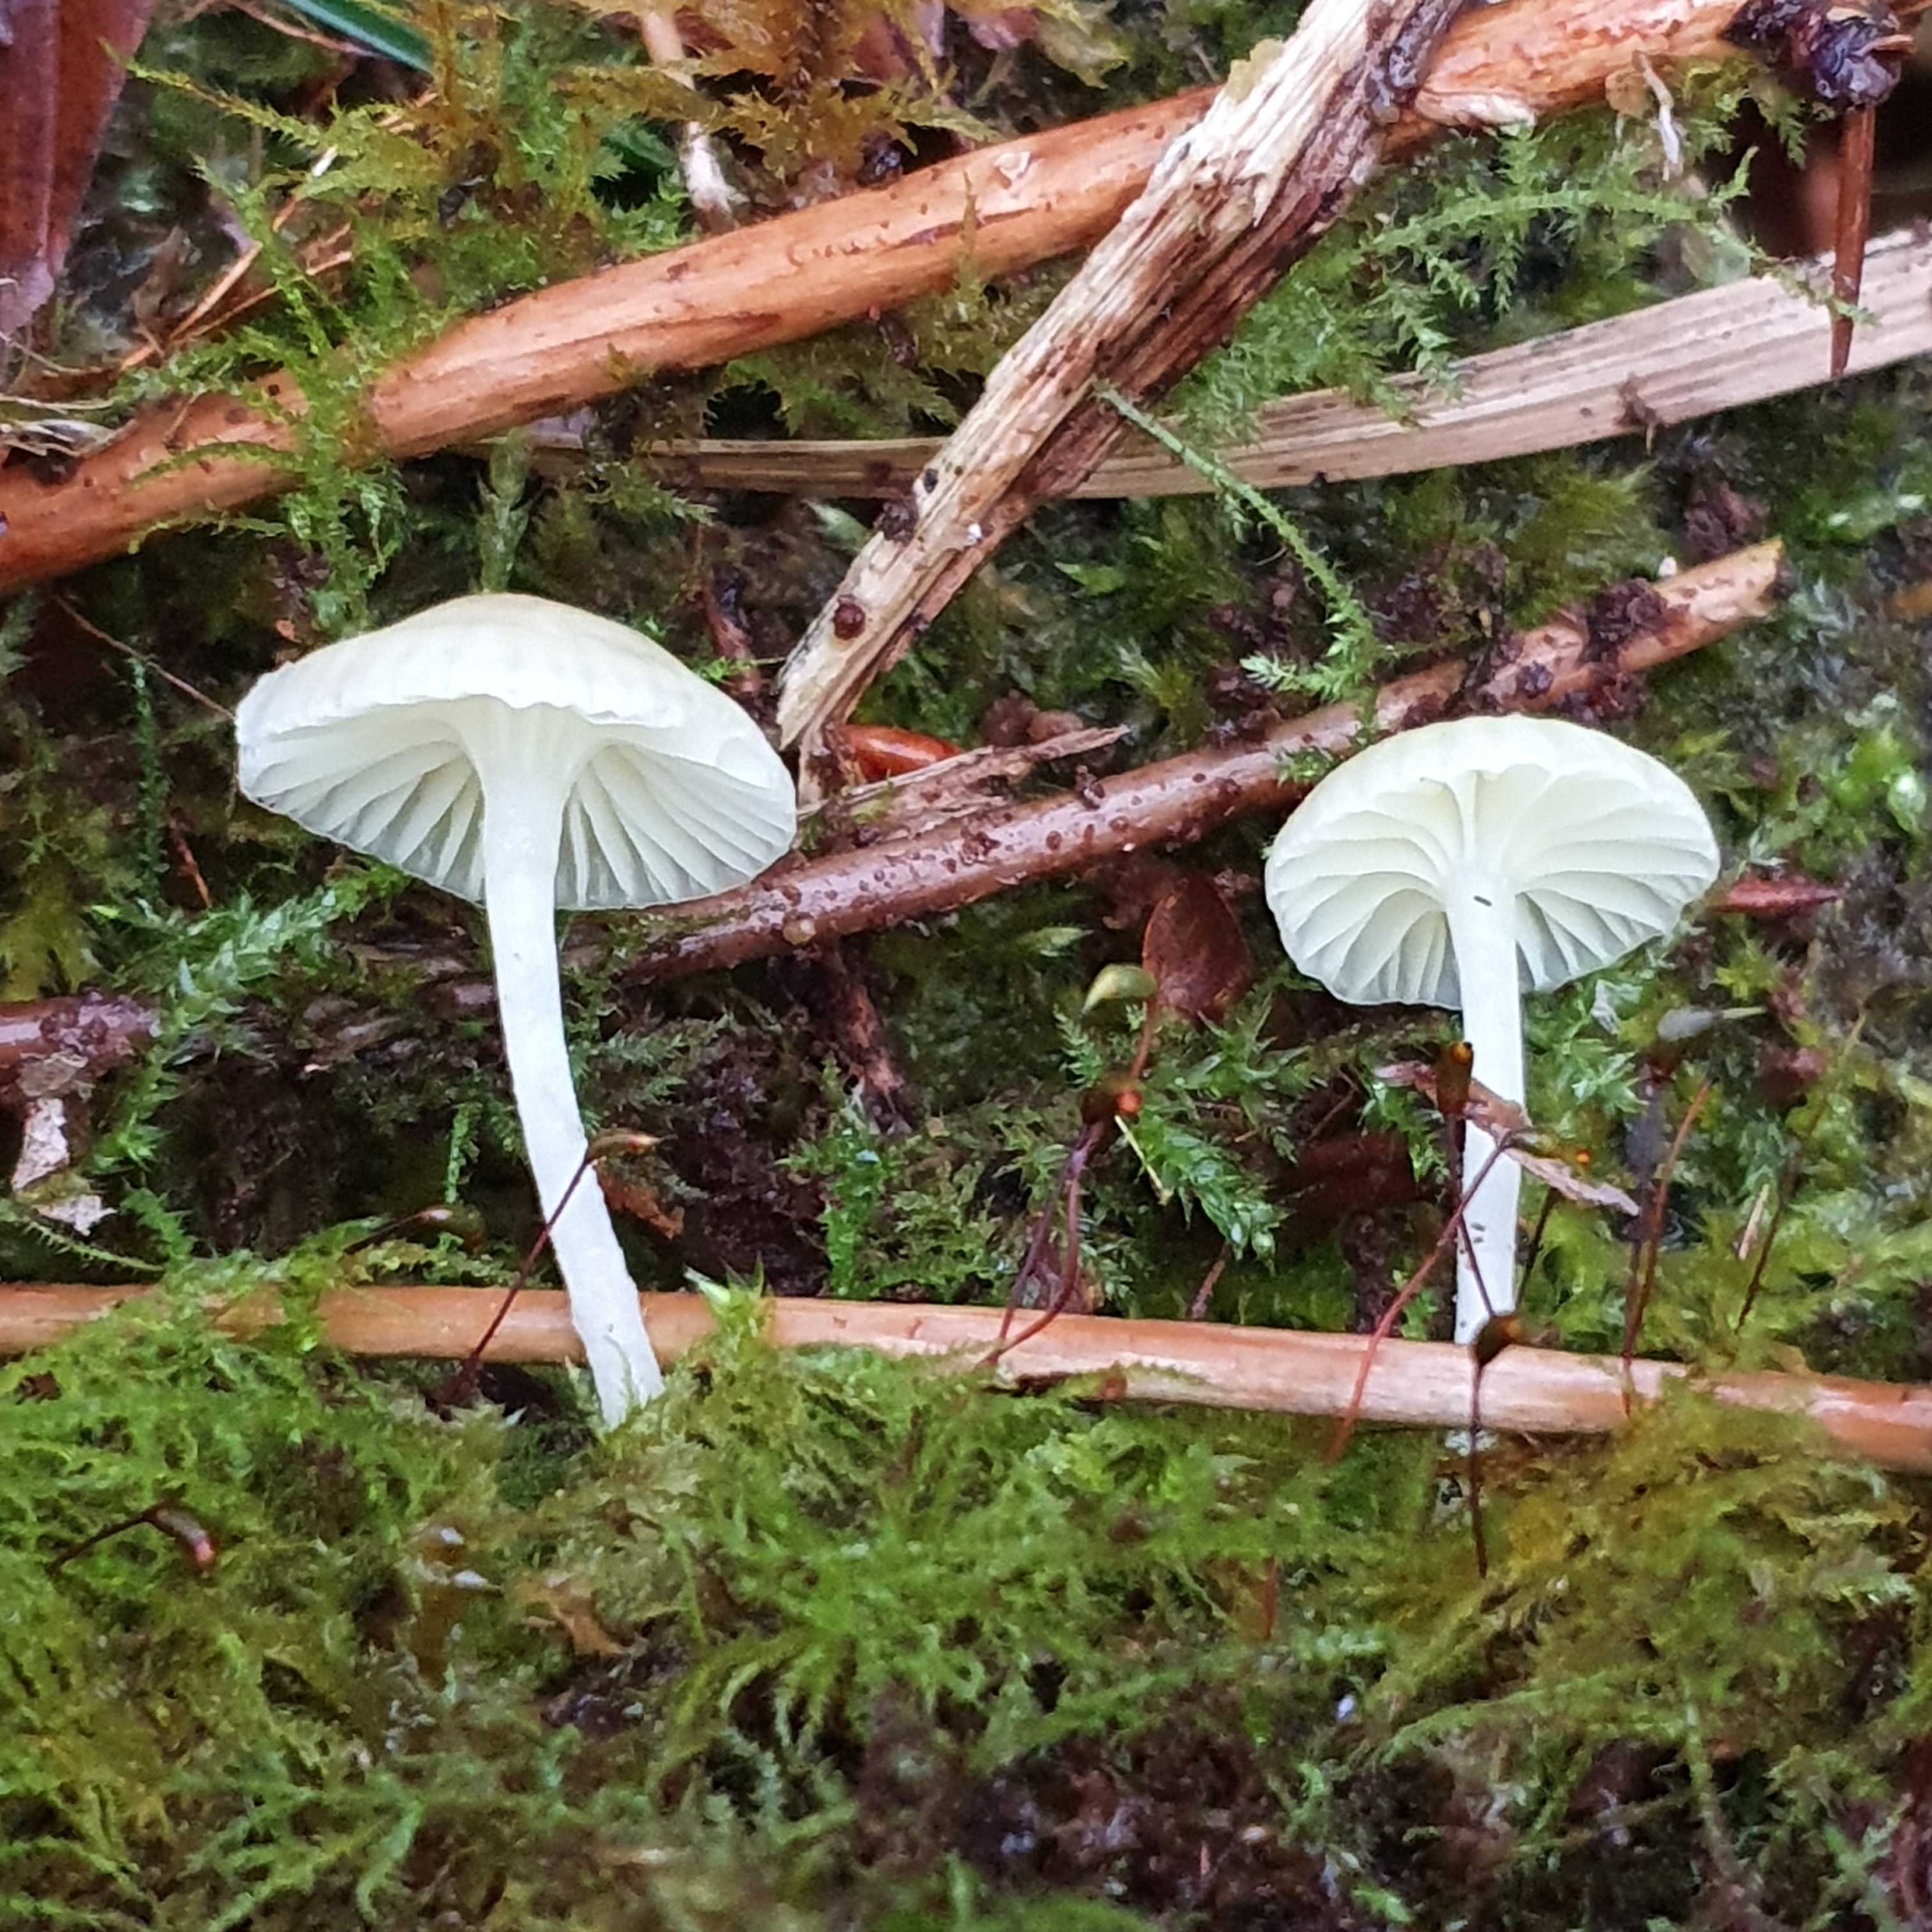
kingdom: Fungi
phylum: Basidiomycota
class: Agaricomycetes
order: Agaricales
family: Hygrophoraceae
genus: Chrysomphalina
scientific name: Chrysomphalina grossula
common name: stød-gyldenblad
